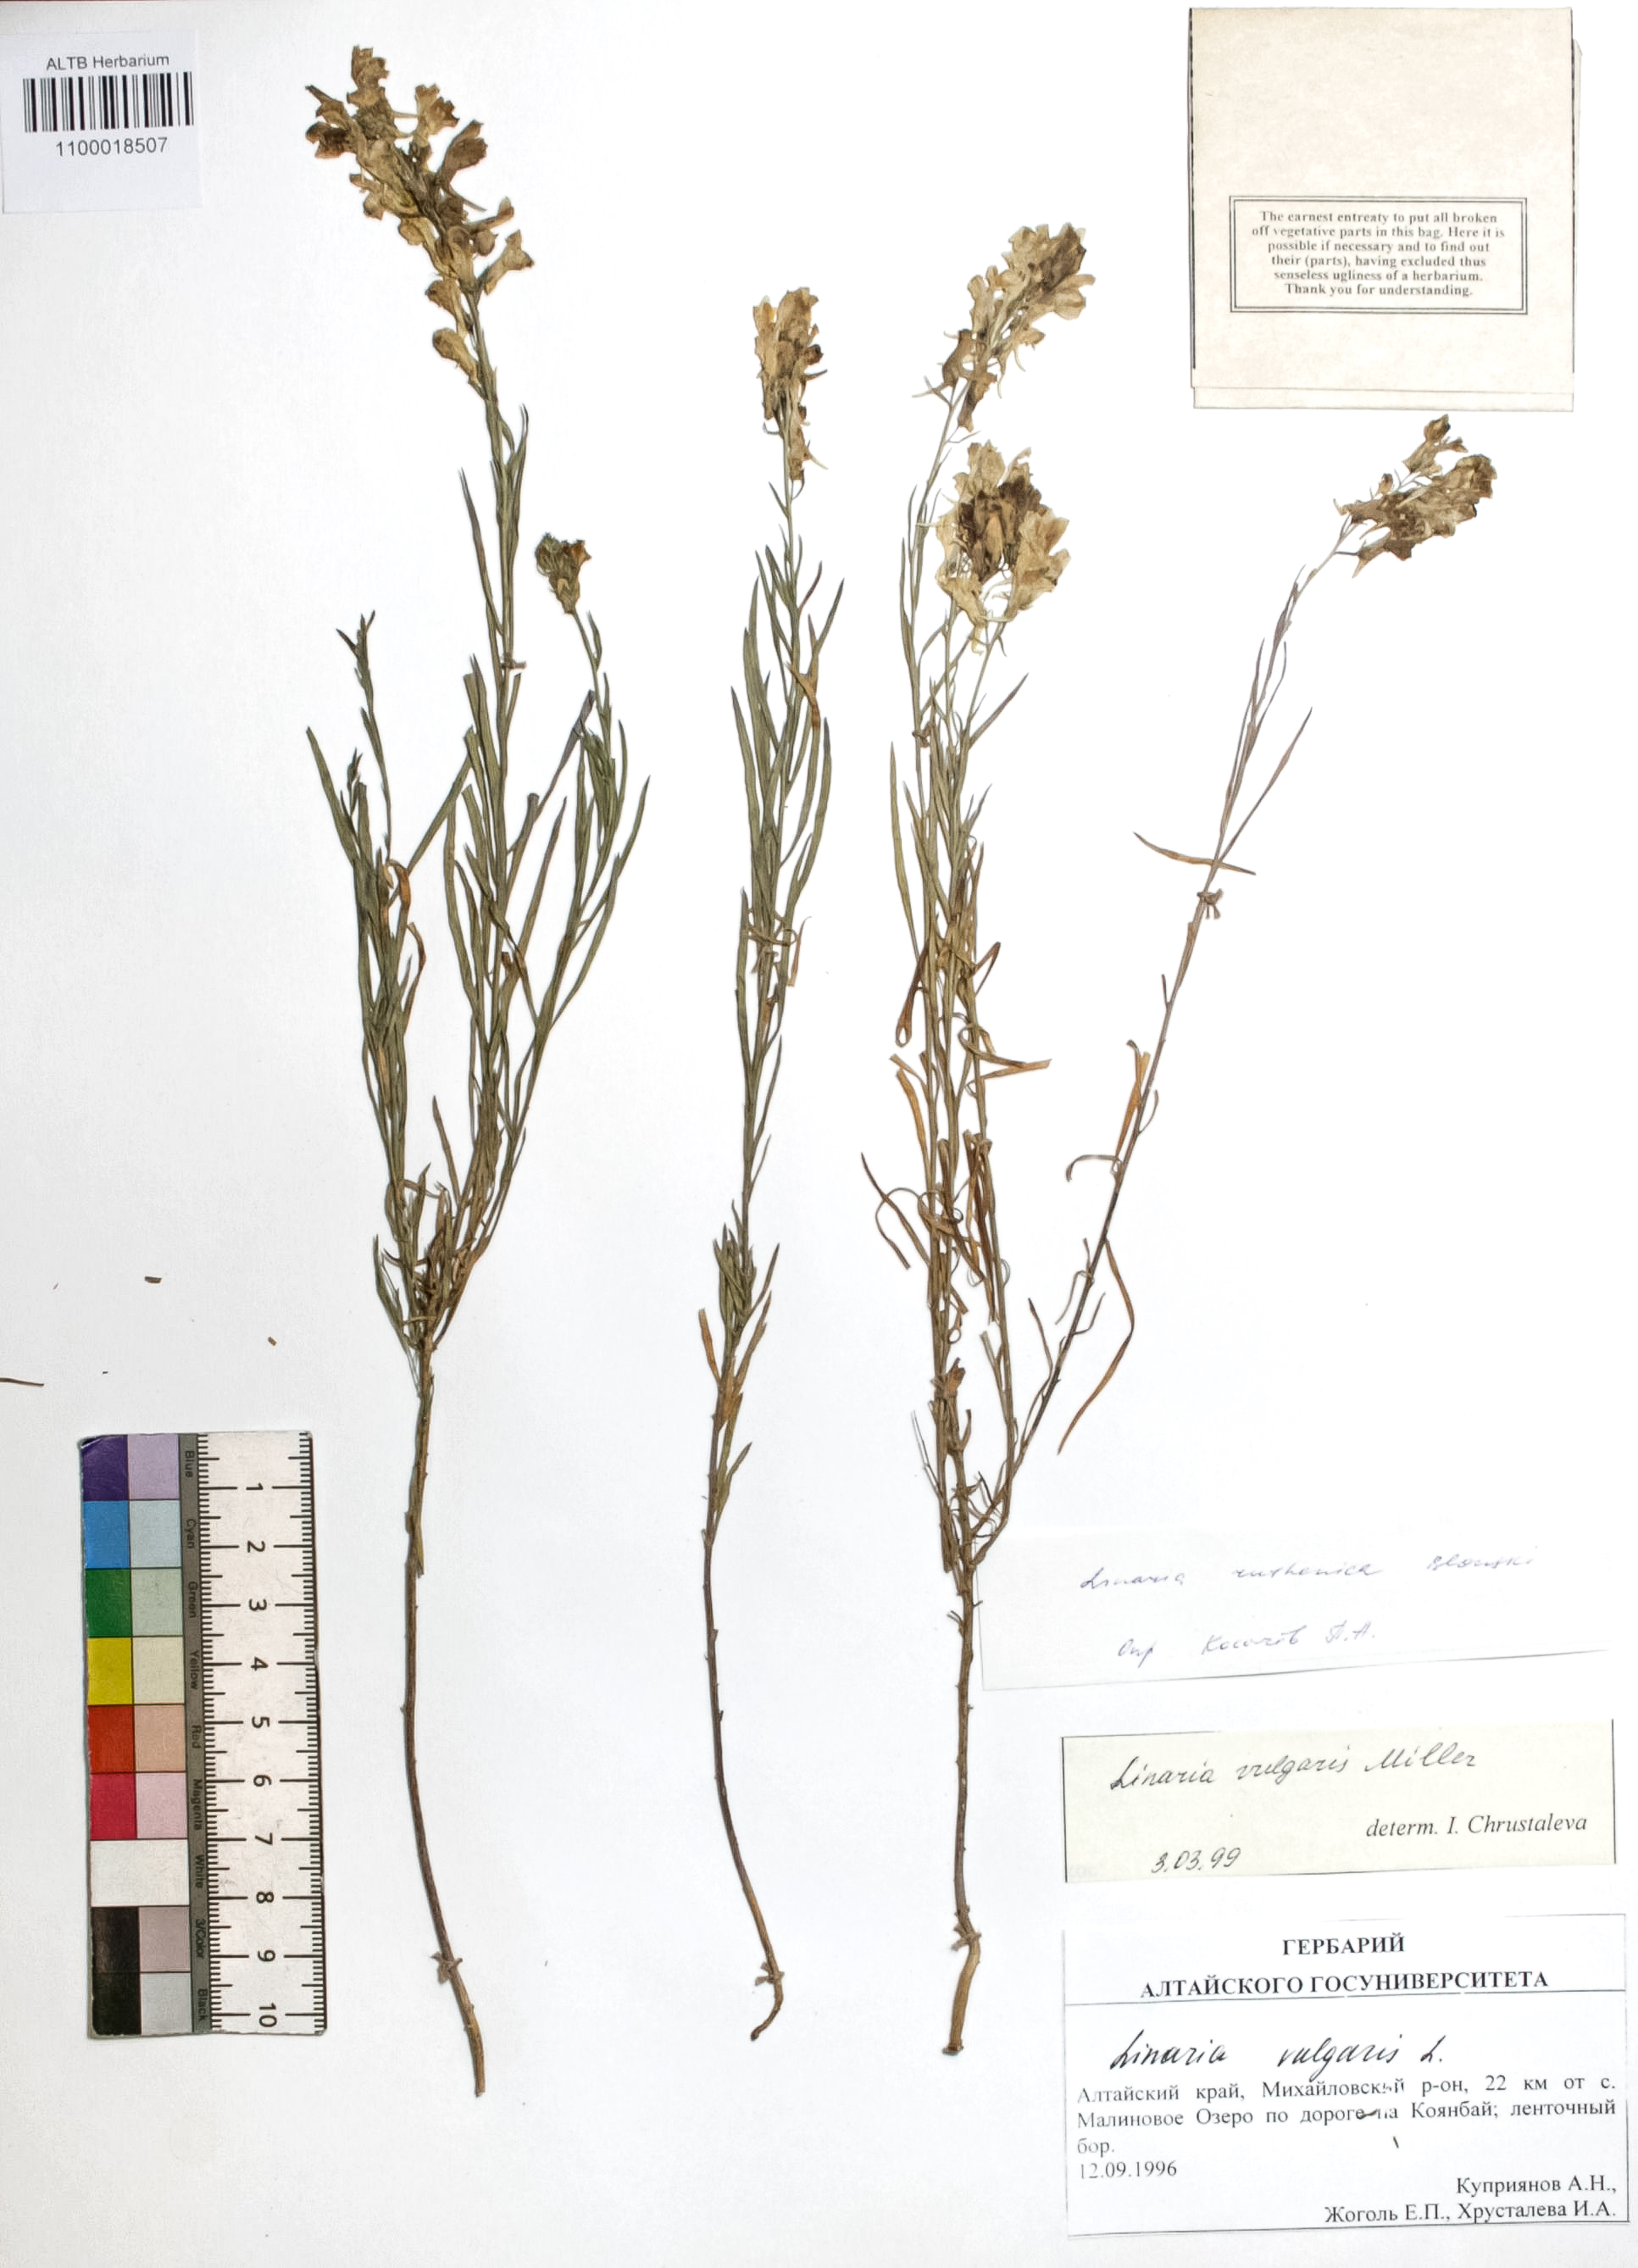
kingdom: Plantae
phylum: Tracheophyta
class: Magnoliopsida
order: Lamiales
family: Plantaginaceae
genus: Linaria
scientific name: Linaria vulgaris
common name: Butter and eggs
